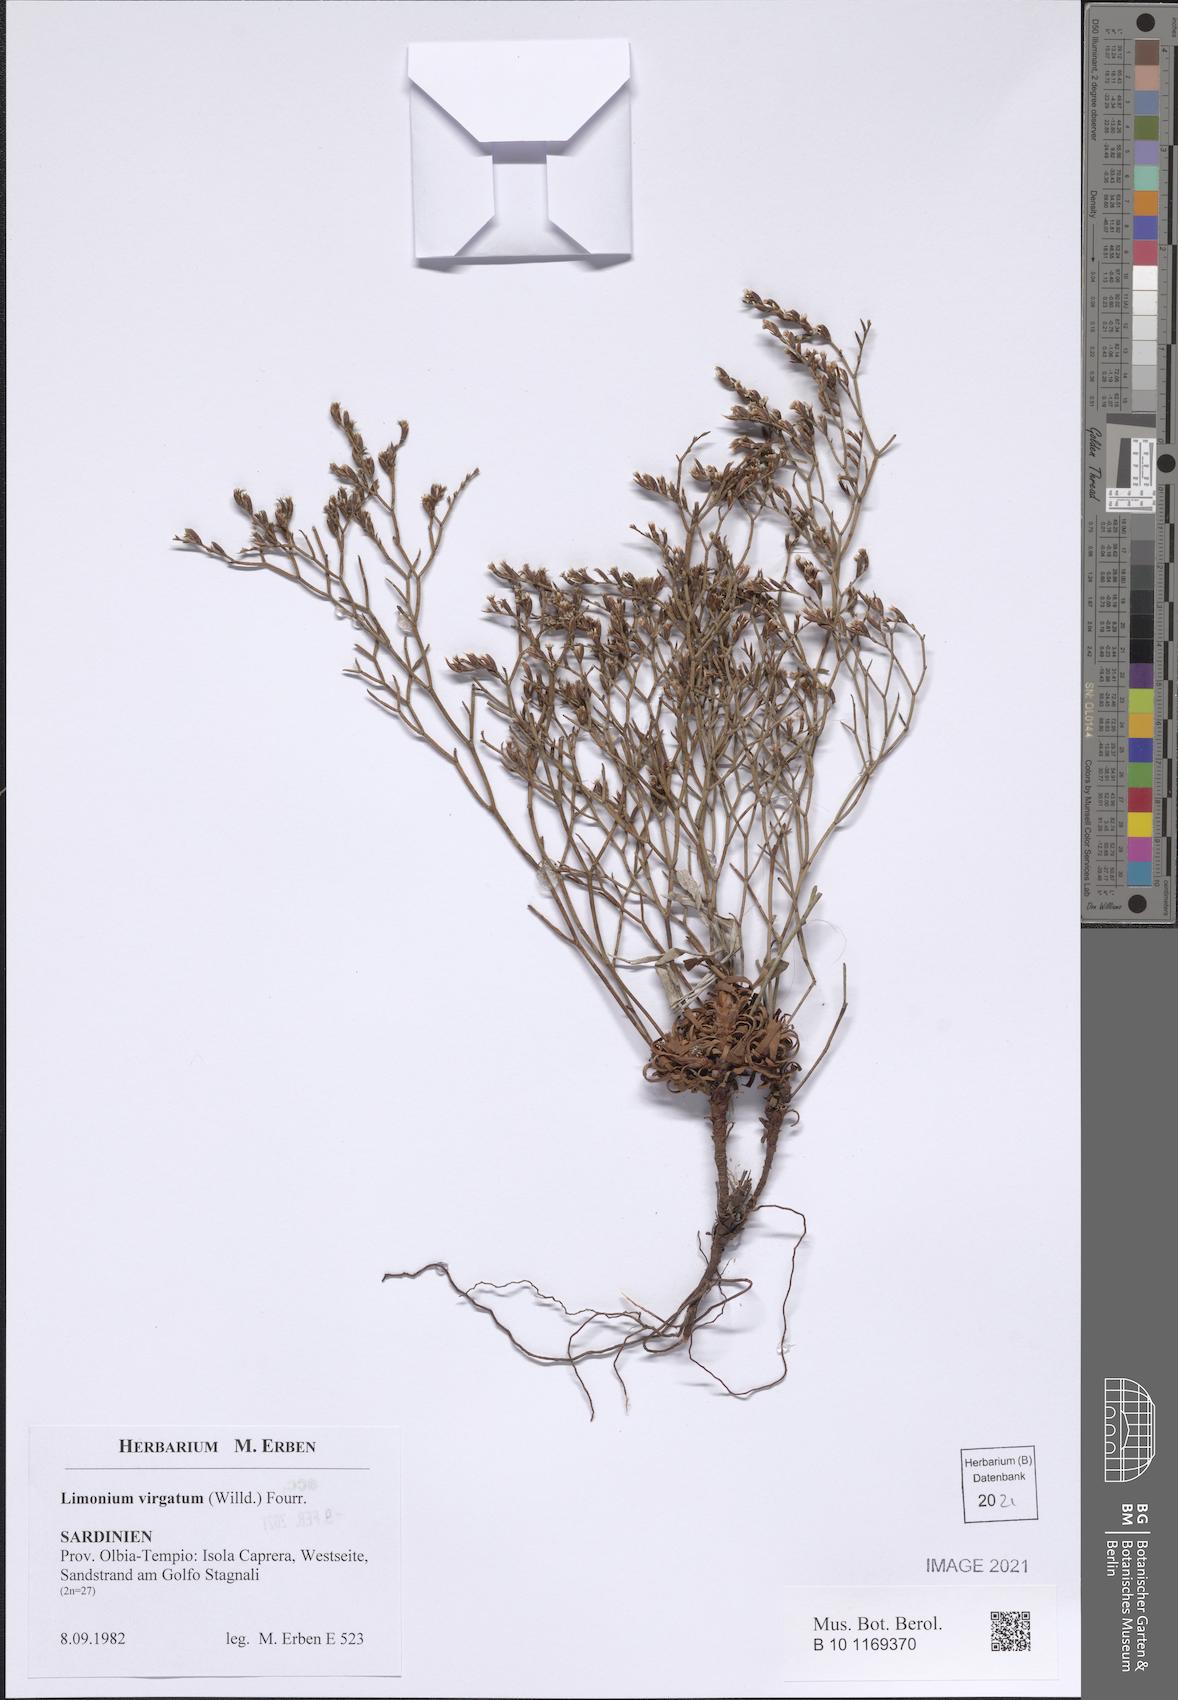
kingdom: Plantae
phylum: Tracheophyta
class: Magnoliopsida
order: Caryophyllales
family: Plumbaginaceae
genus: Limonium
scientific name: Limonium virgatum
